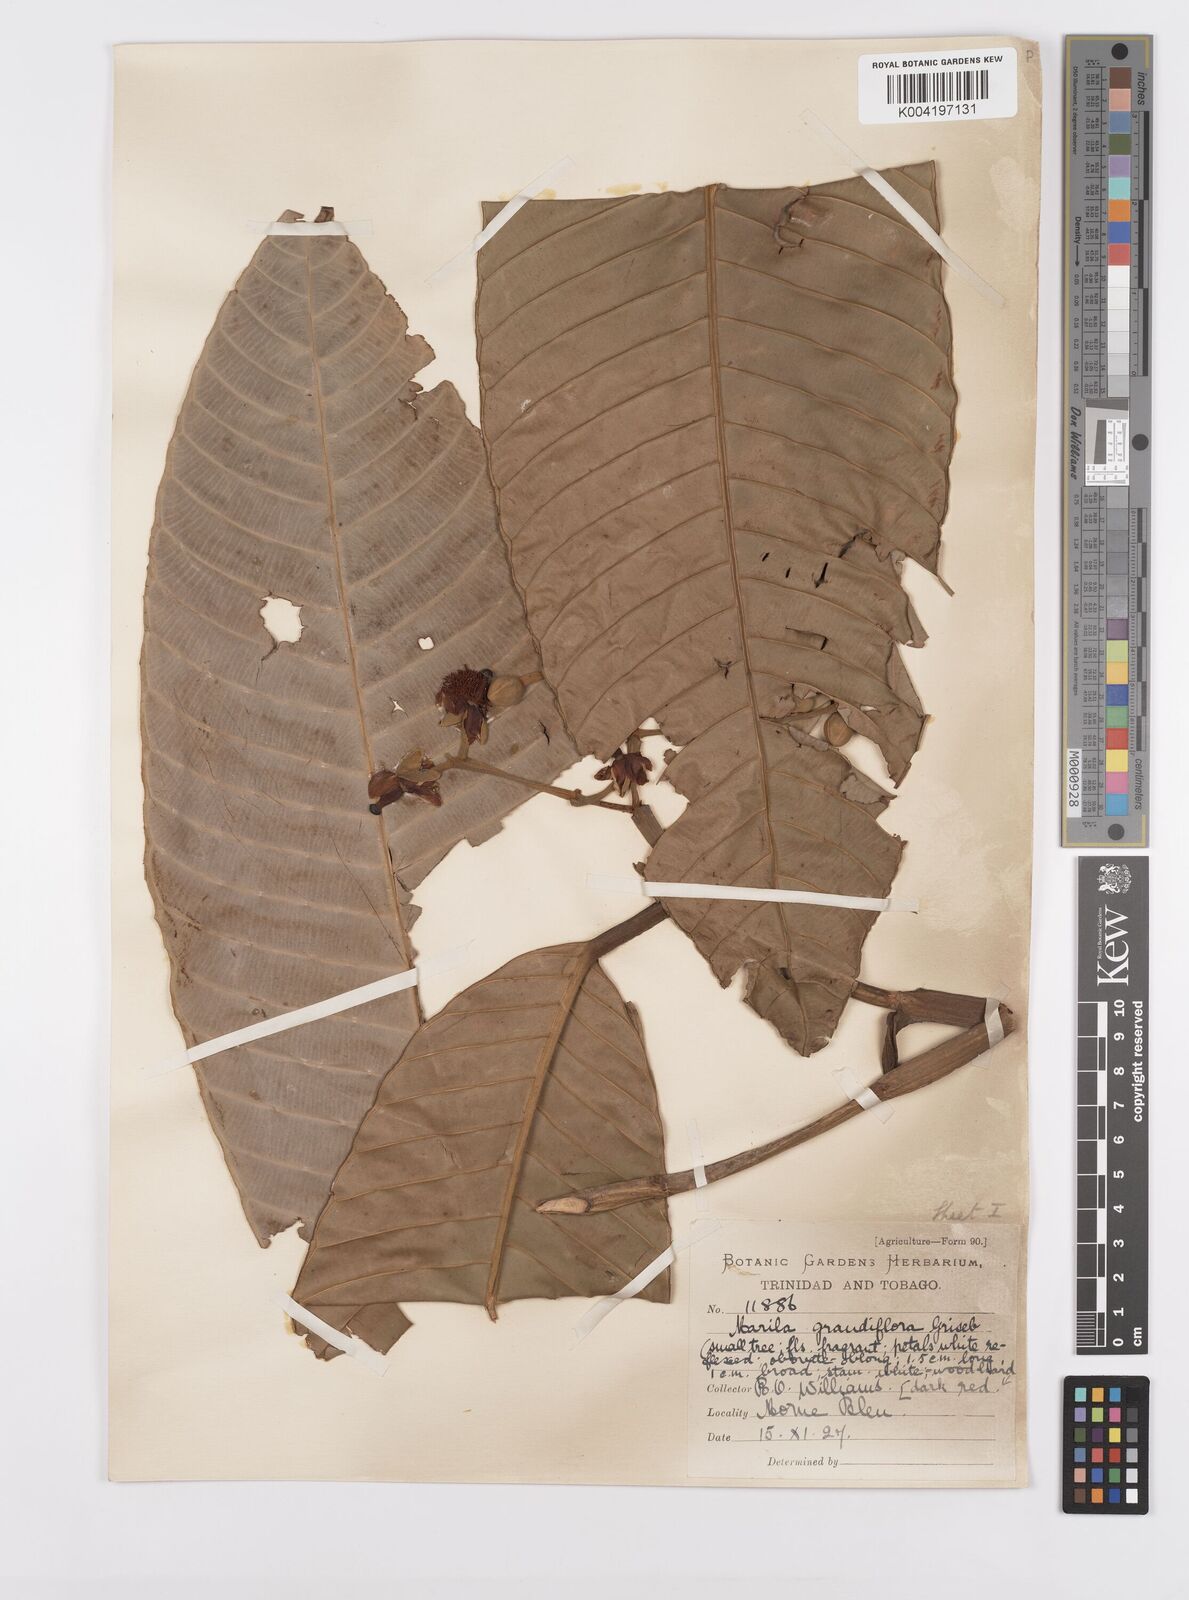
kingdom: Plantae
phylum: Tracheophyta
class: Magnoliopsida
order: Malpighiales
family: Calophyllaceae
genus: Marila
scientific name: Marila grandiflora
